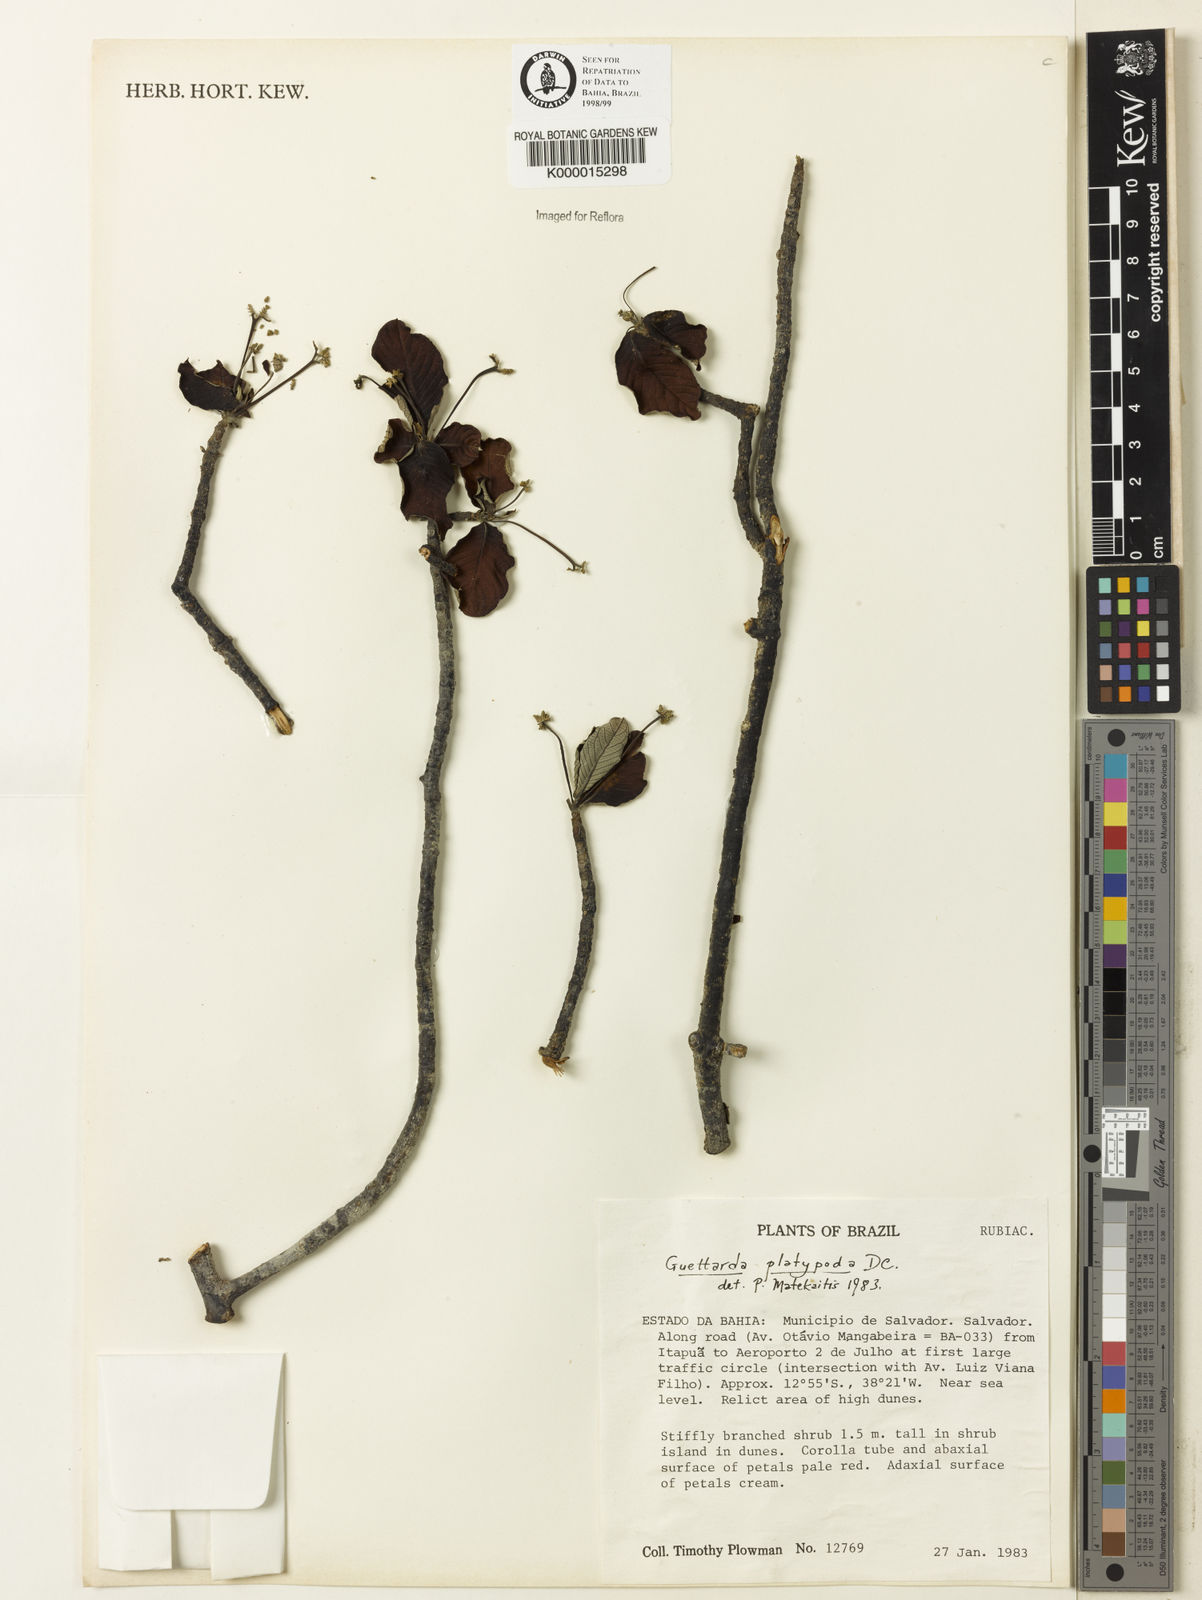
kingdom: Plantae
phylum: Tracheophyta
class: Magnoliopsida
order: Gentianales
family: Rubiaceae
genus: Guettarda
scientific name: Guettarda platypoda
